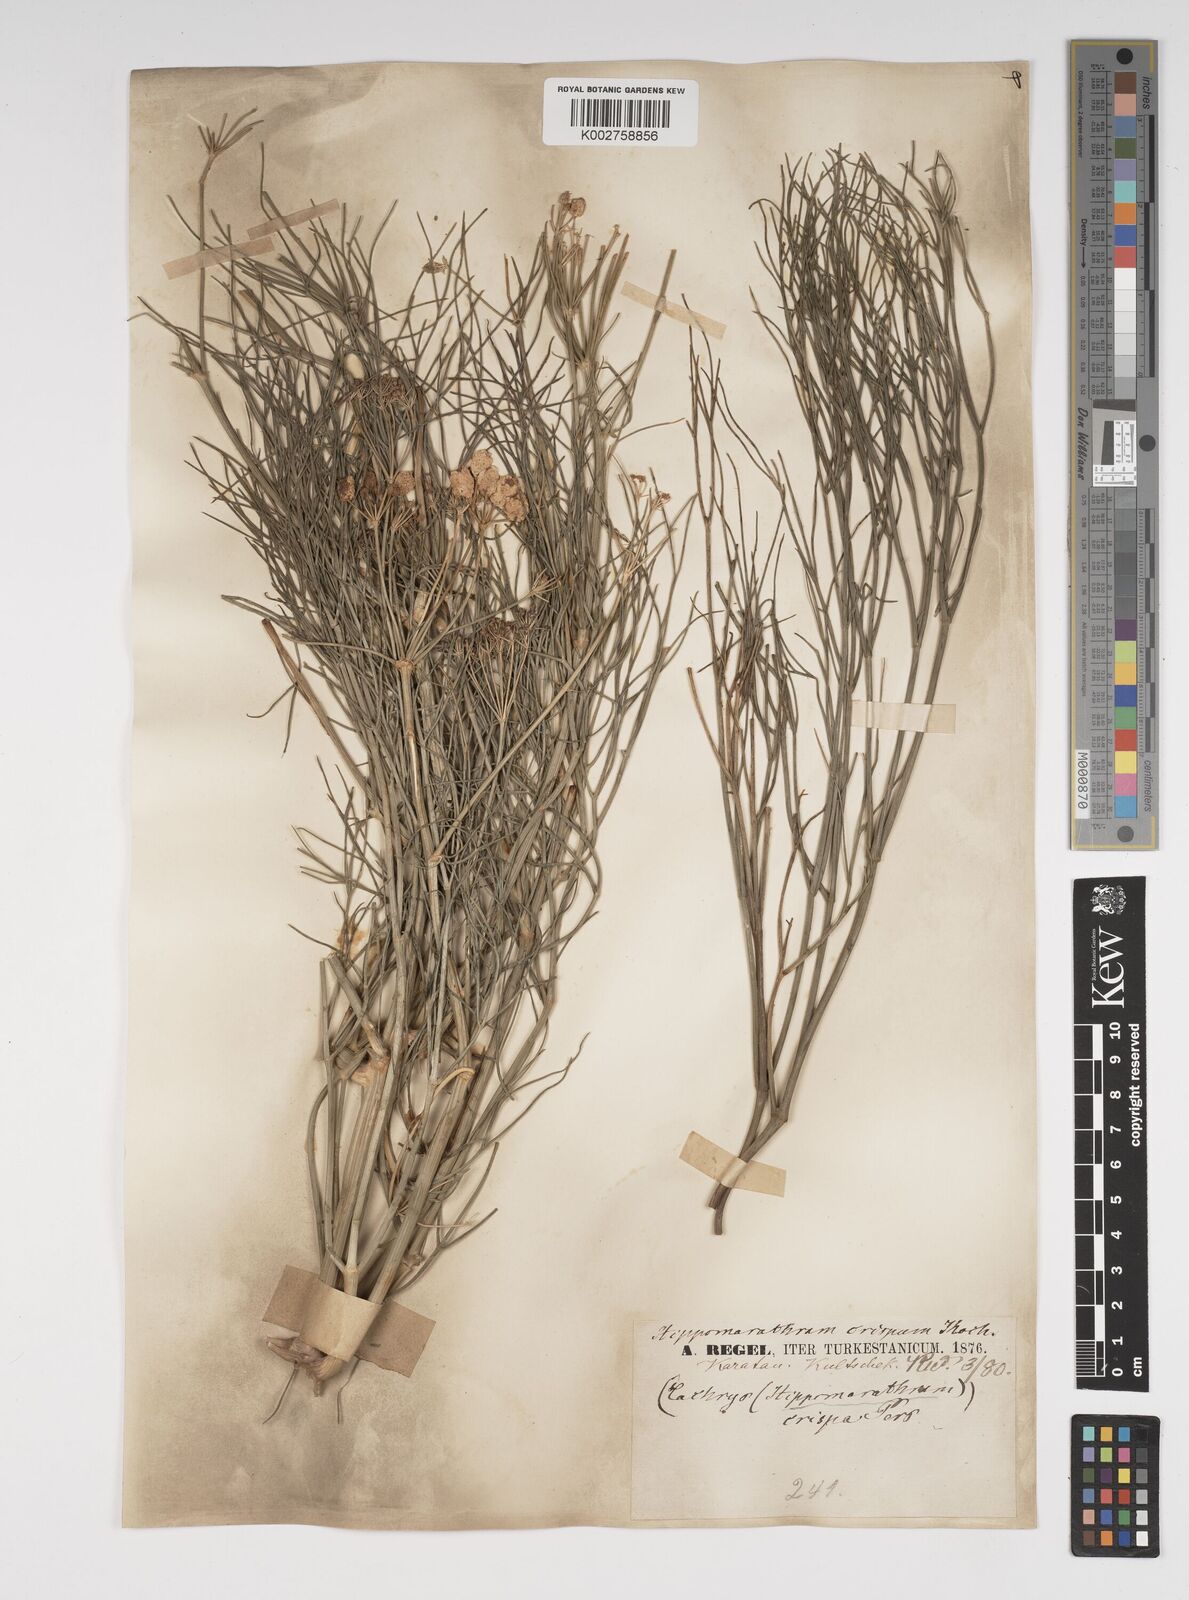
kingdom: Plantae
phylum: Tracheophyta
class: Magnoliopsida
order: Apiales
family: Apiaceae
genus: Cachrys
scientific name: Cachrys
